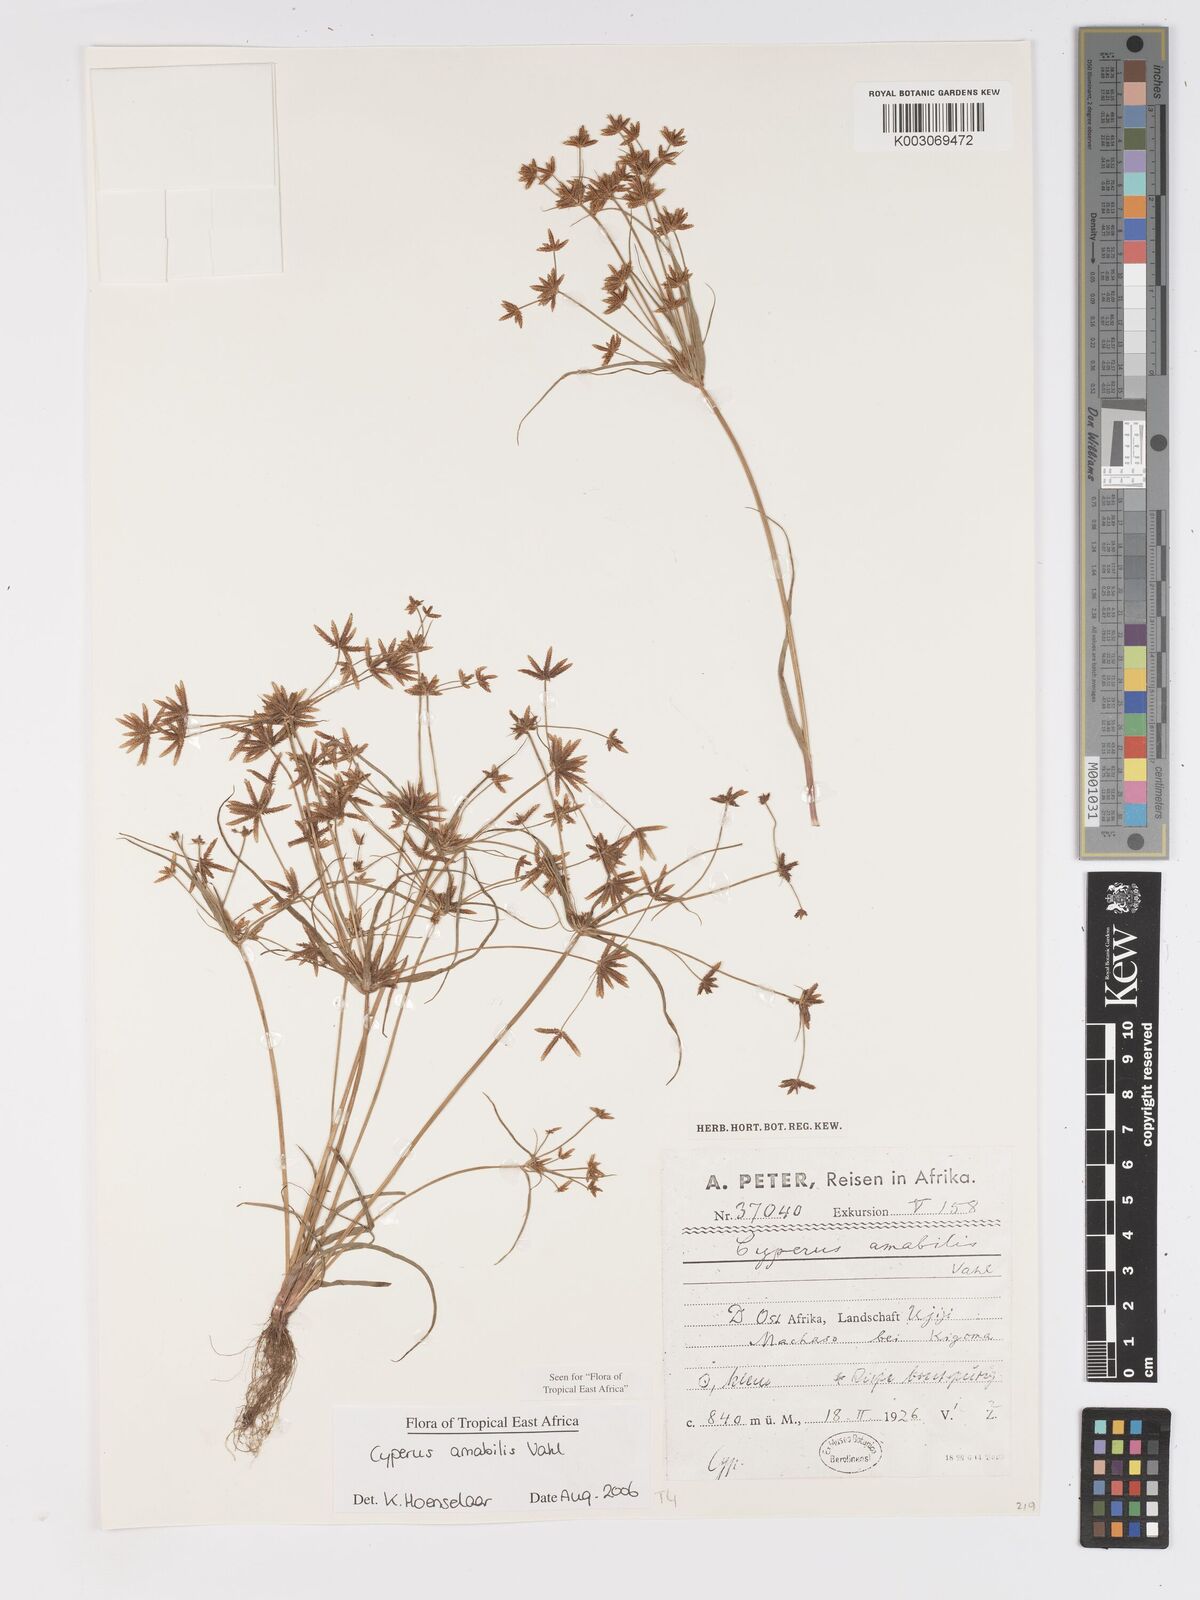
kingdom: Plantae
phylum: Tracheophyta
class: Liliopsida
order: Poales
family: Cyperaceae
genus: Cyperus
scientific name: Cyperus amabilis
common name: Foothill flat sedge
